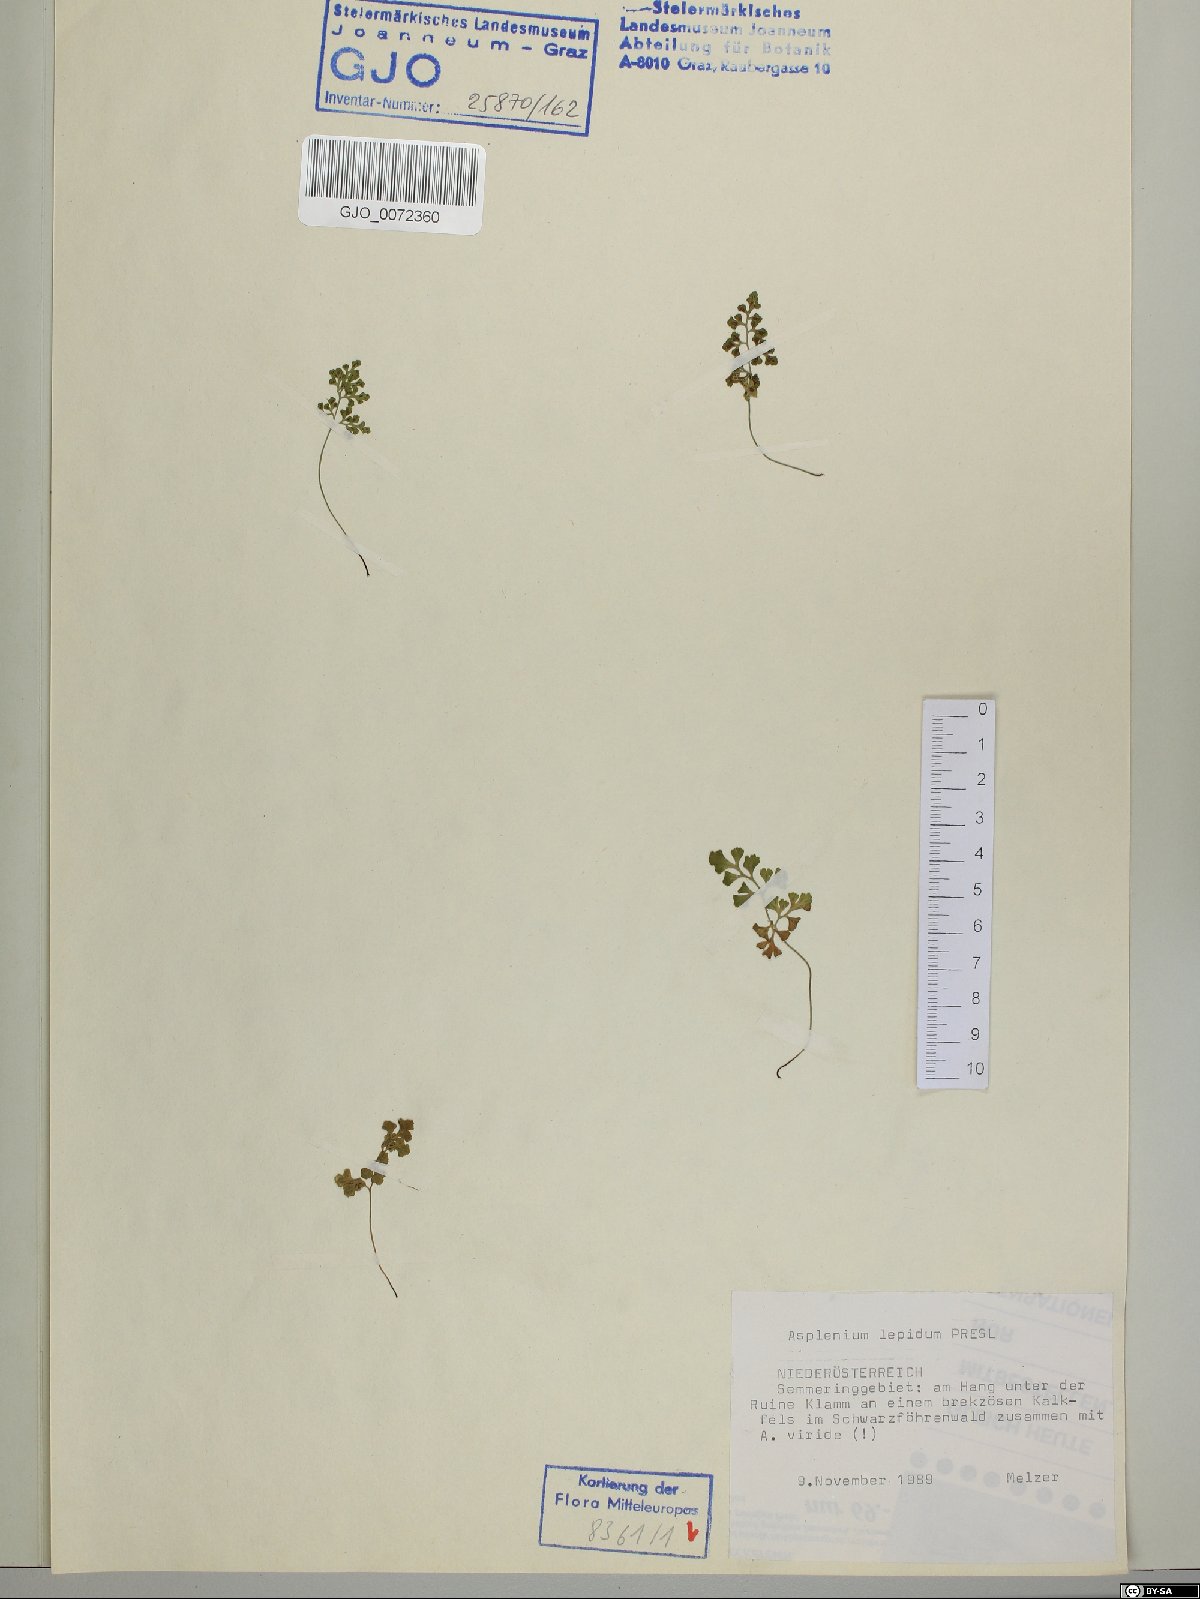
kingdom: Plantae
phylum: Tracheophyta
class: Polypodiopsida
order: Polypodiales
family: Aspleniaceae
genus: Asplenium
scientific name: Asplenium lepidum
